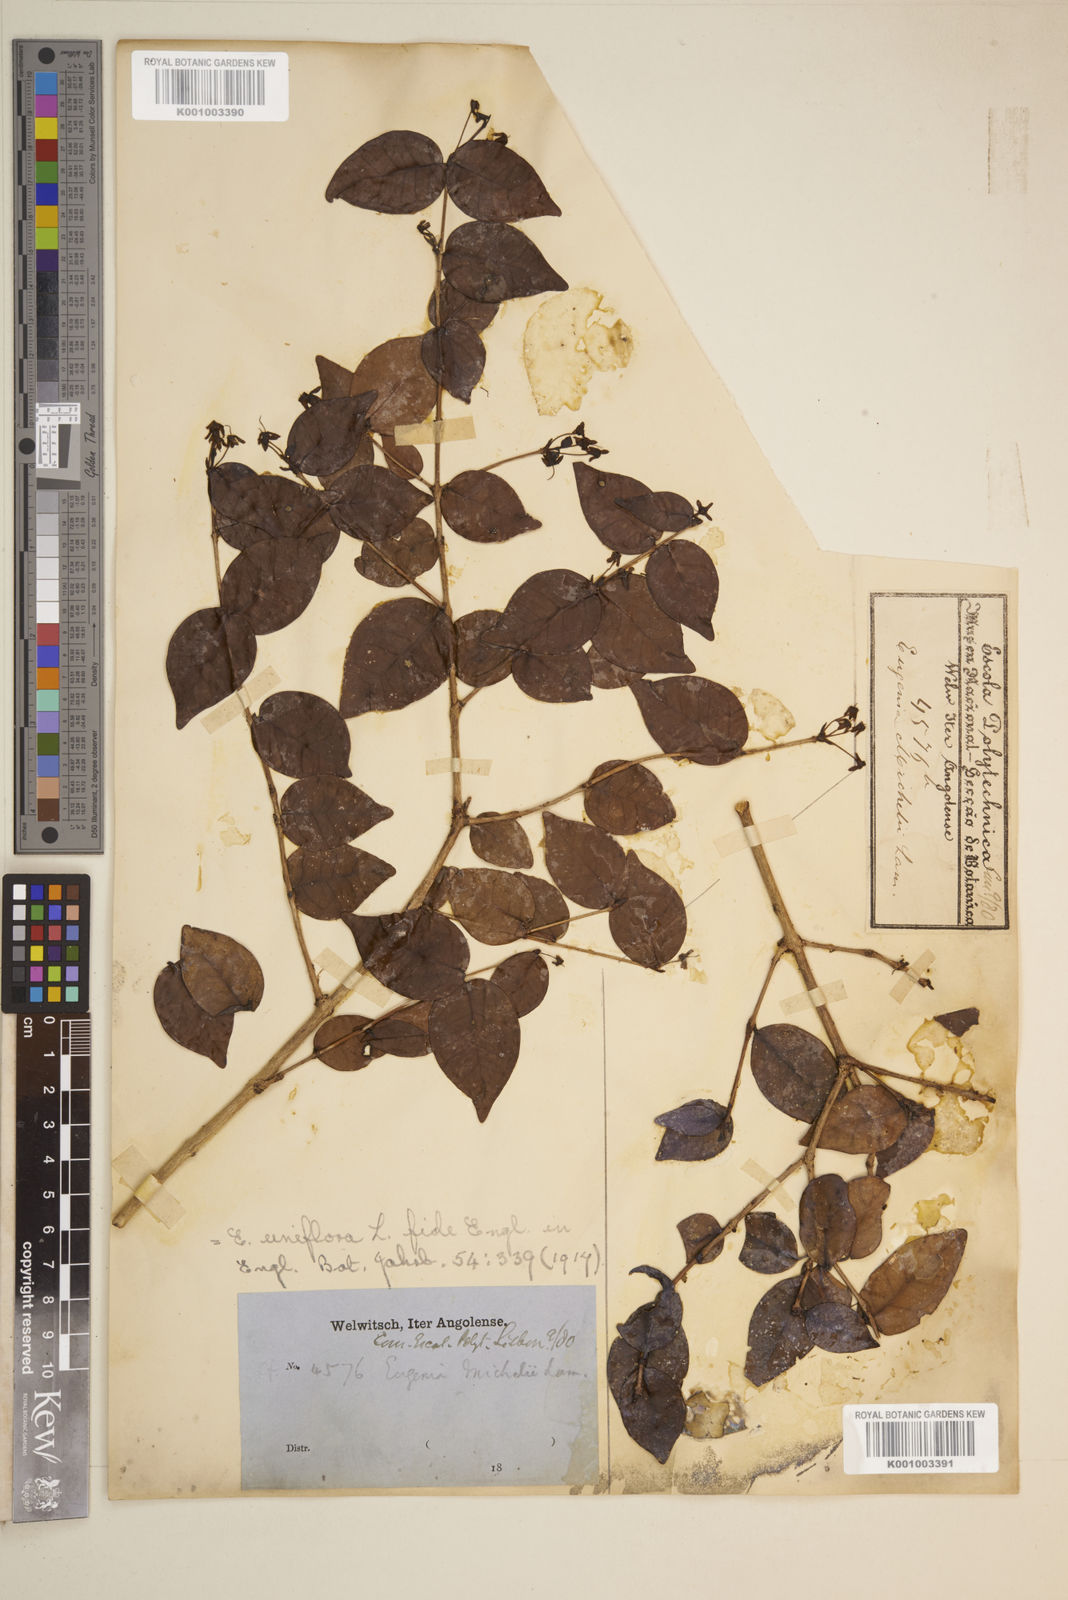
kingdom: Plantae
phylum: Tracheophyta
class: Magnoliopsida
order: Myrtales
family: Myrtaceae
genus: Eugenia
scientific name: Eugenia uniflora
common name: Surinam cherry
